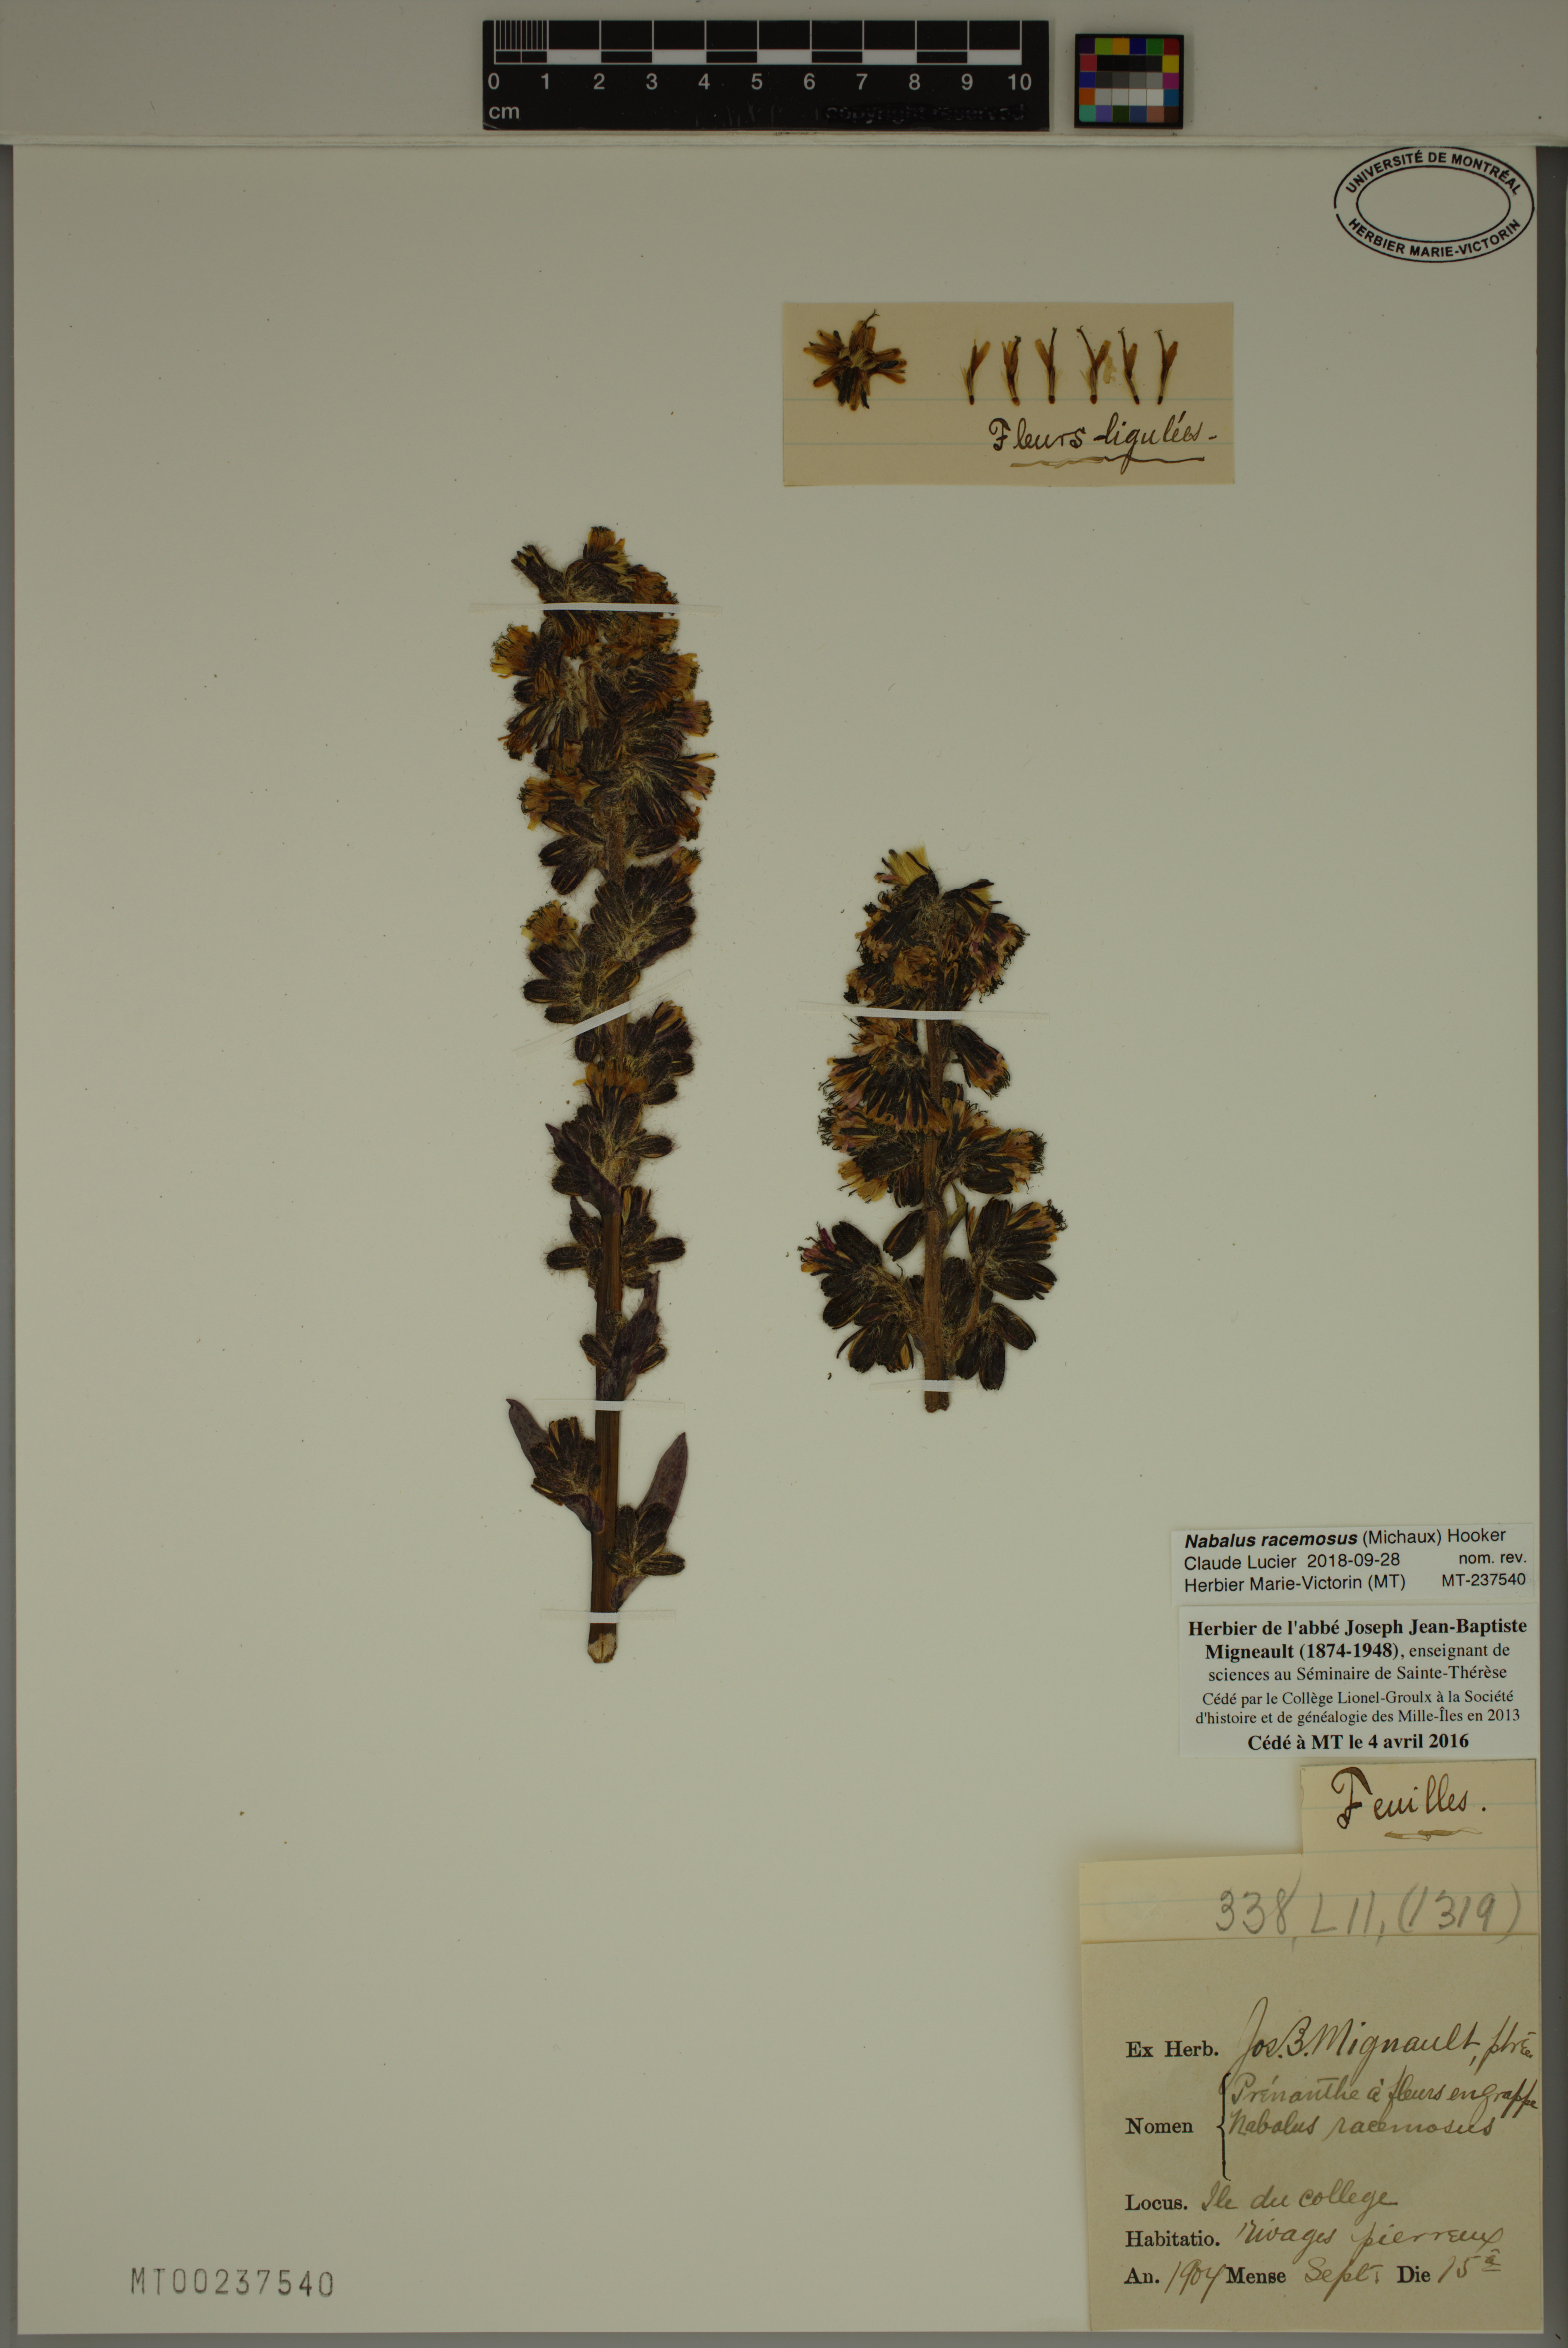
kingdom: Plantae
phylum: Tracheophyta
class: Magnoliopsida
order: Asterales
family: Asteraceae
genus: Nabalus
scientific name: Nabalus racemosus
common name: Glaucous white lettuce
